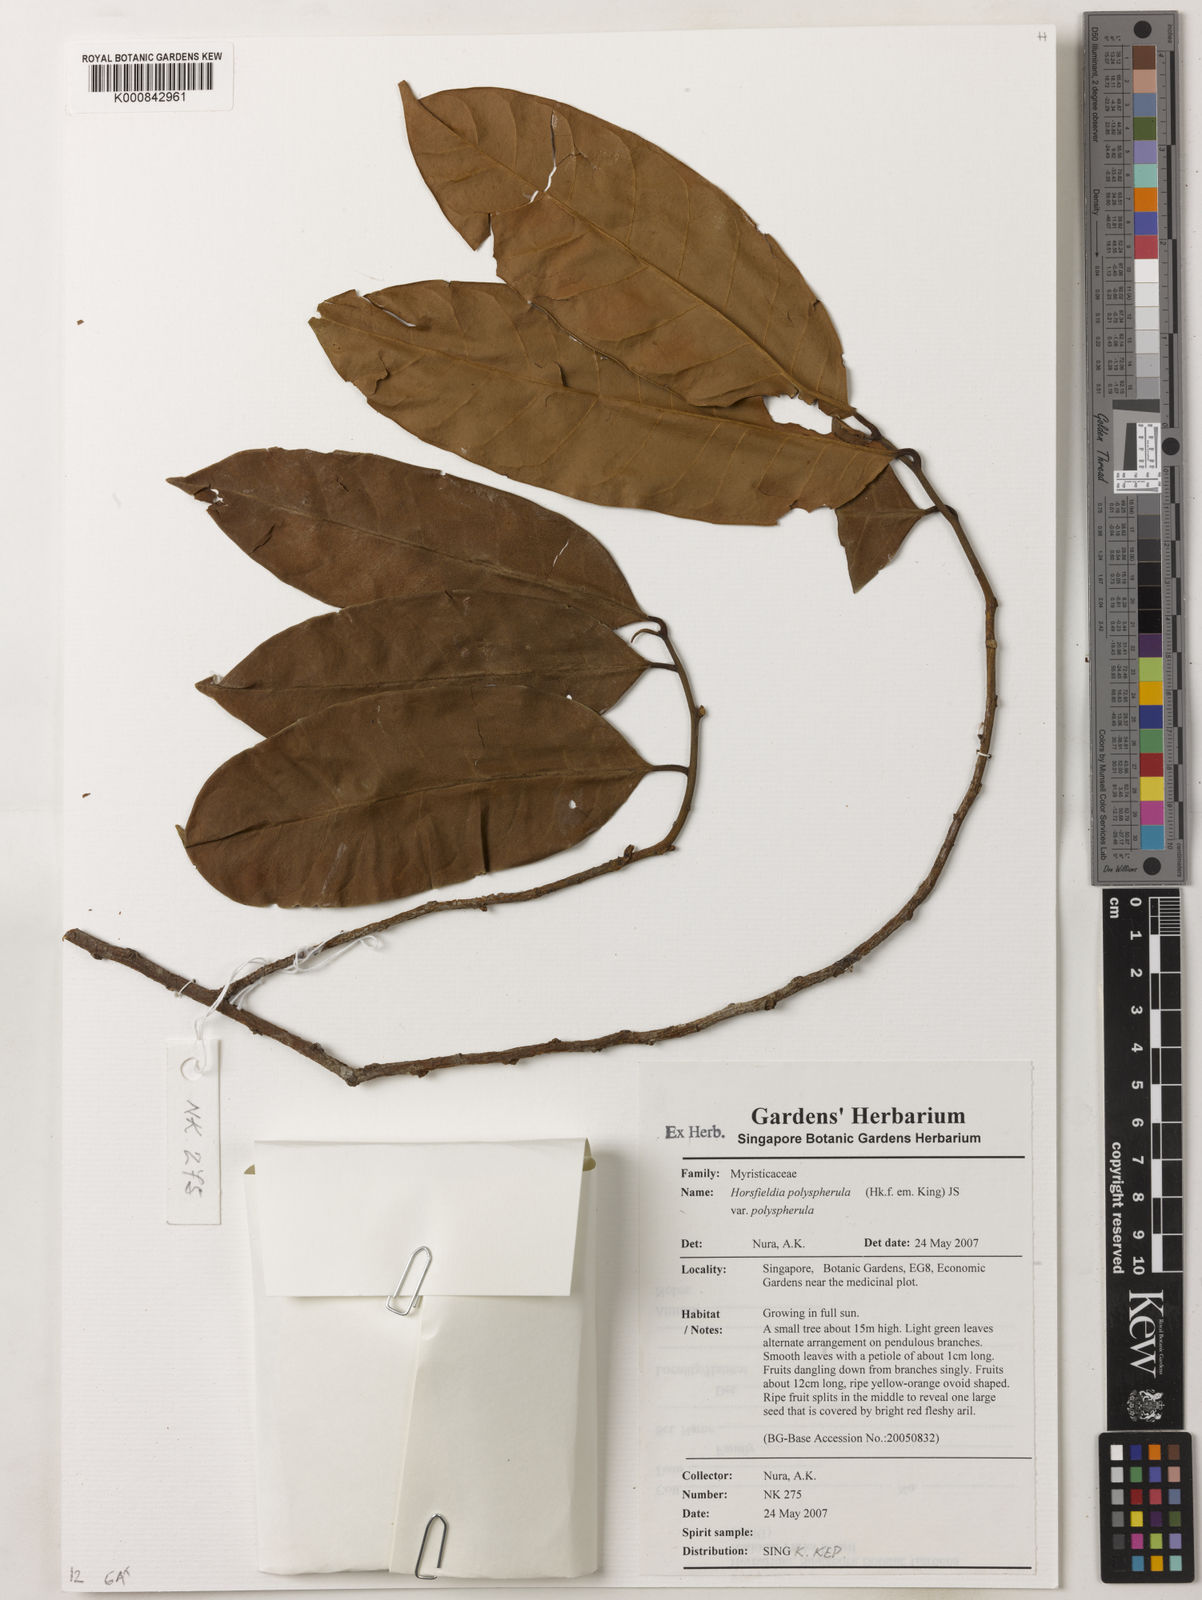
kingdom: Plantae
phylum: Tracheophyta
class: Magnoliopsida
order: Magnoliales
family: Myristicaceae
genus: Horsfieldia
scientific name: Horsfieldia
